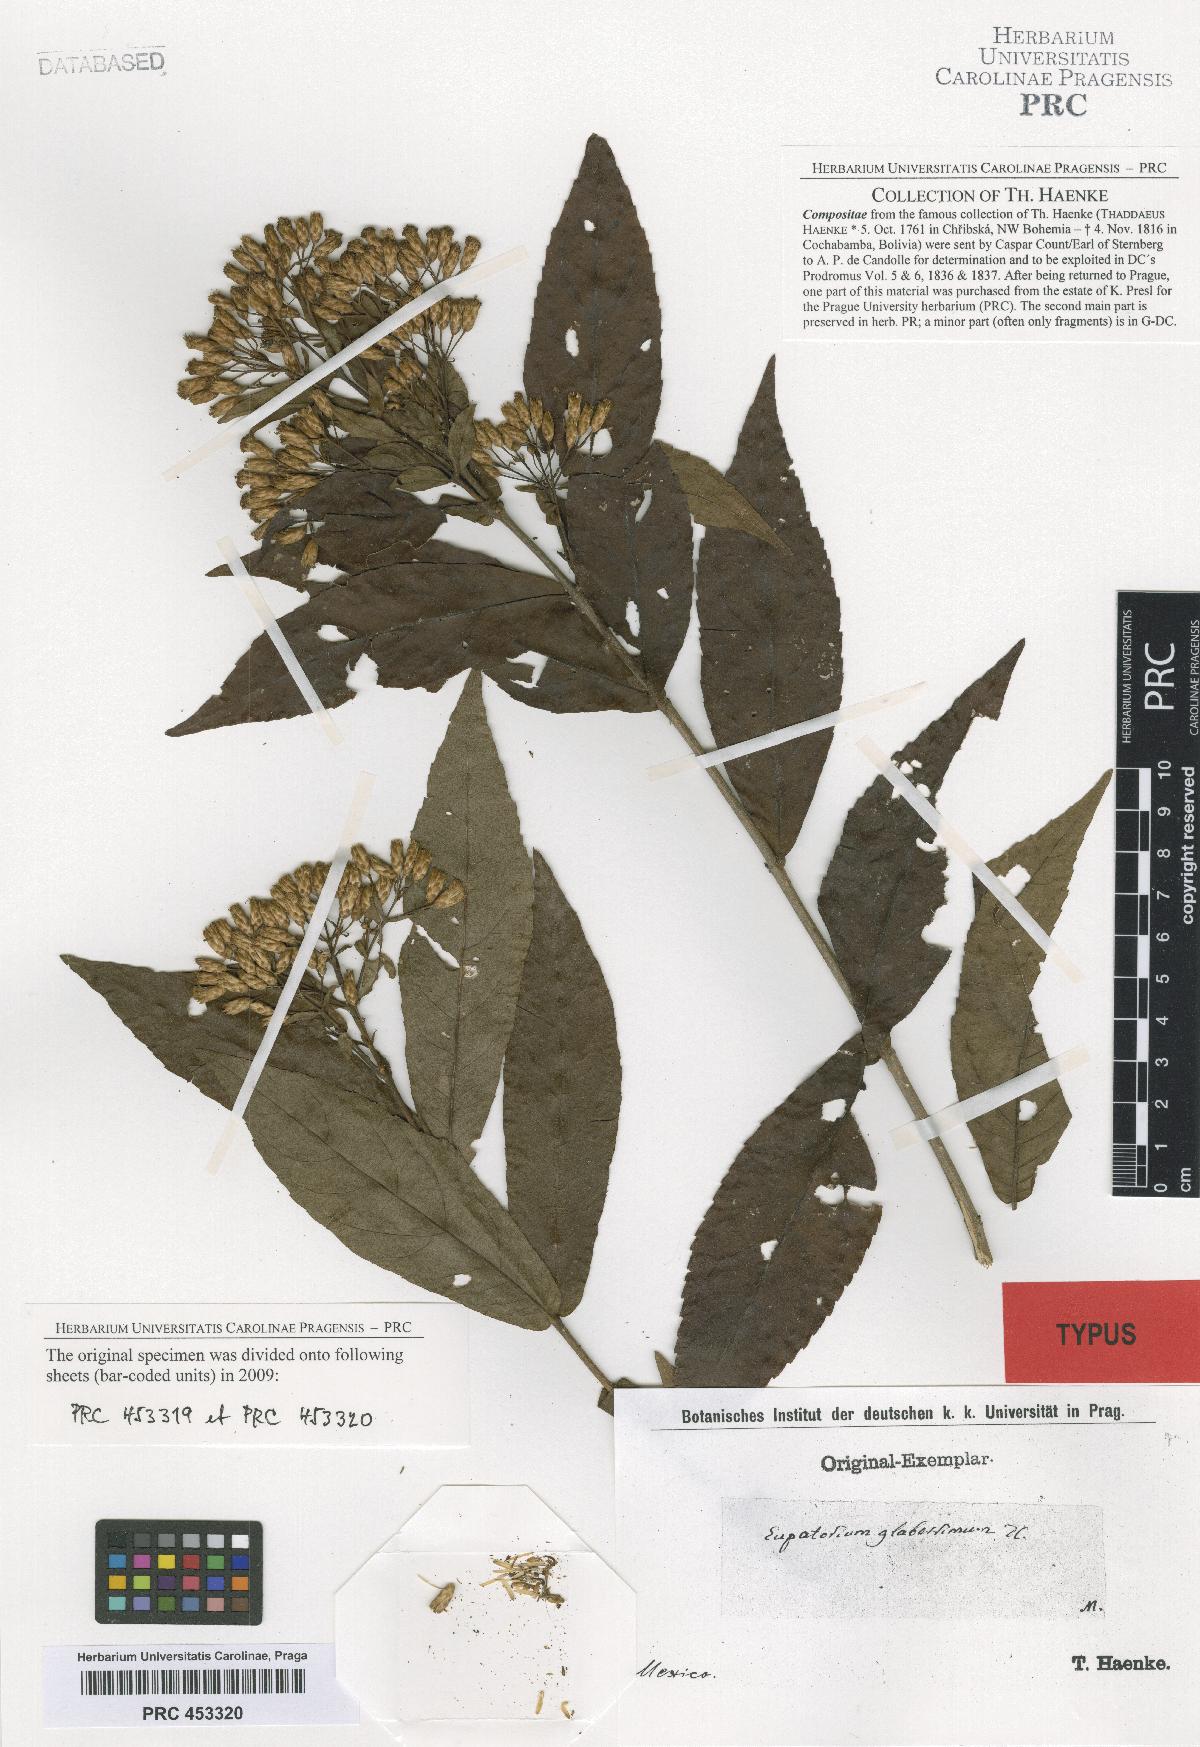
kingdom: Plantae
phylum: Tracheophyta
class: Magnoliopsida
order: Asterales
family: Asteraceae
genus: Chromolaena
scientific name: Chromolaena glaberrima
